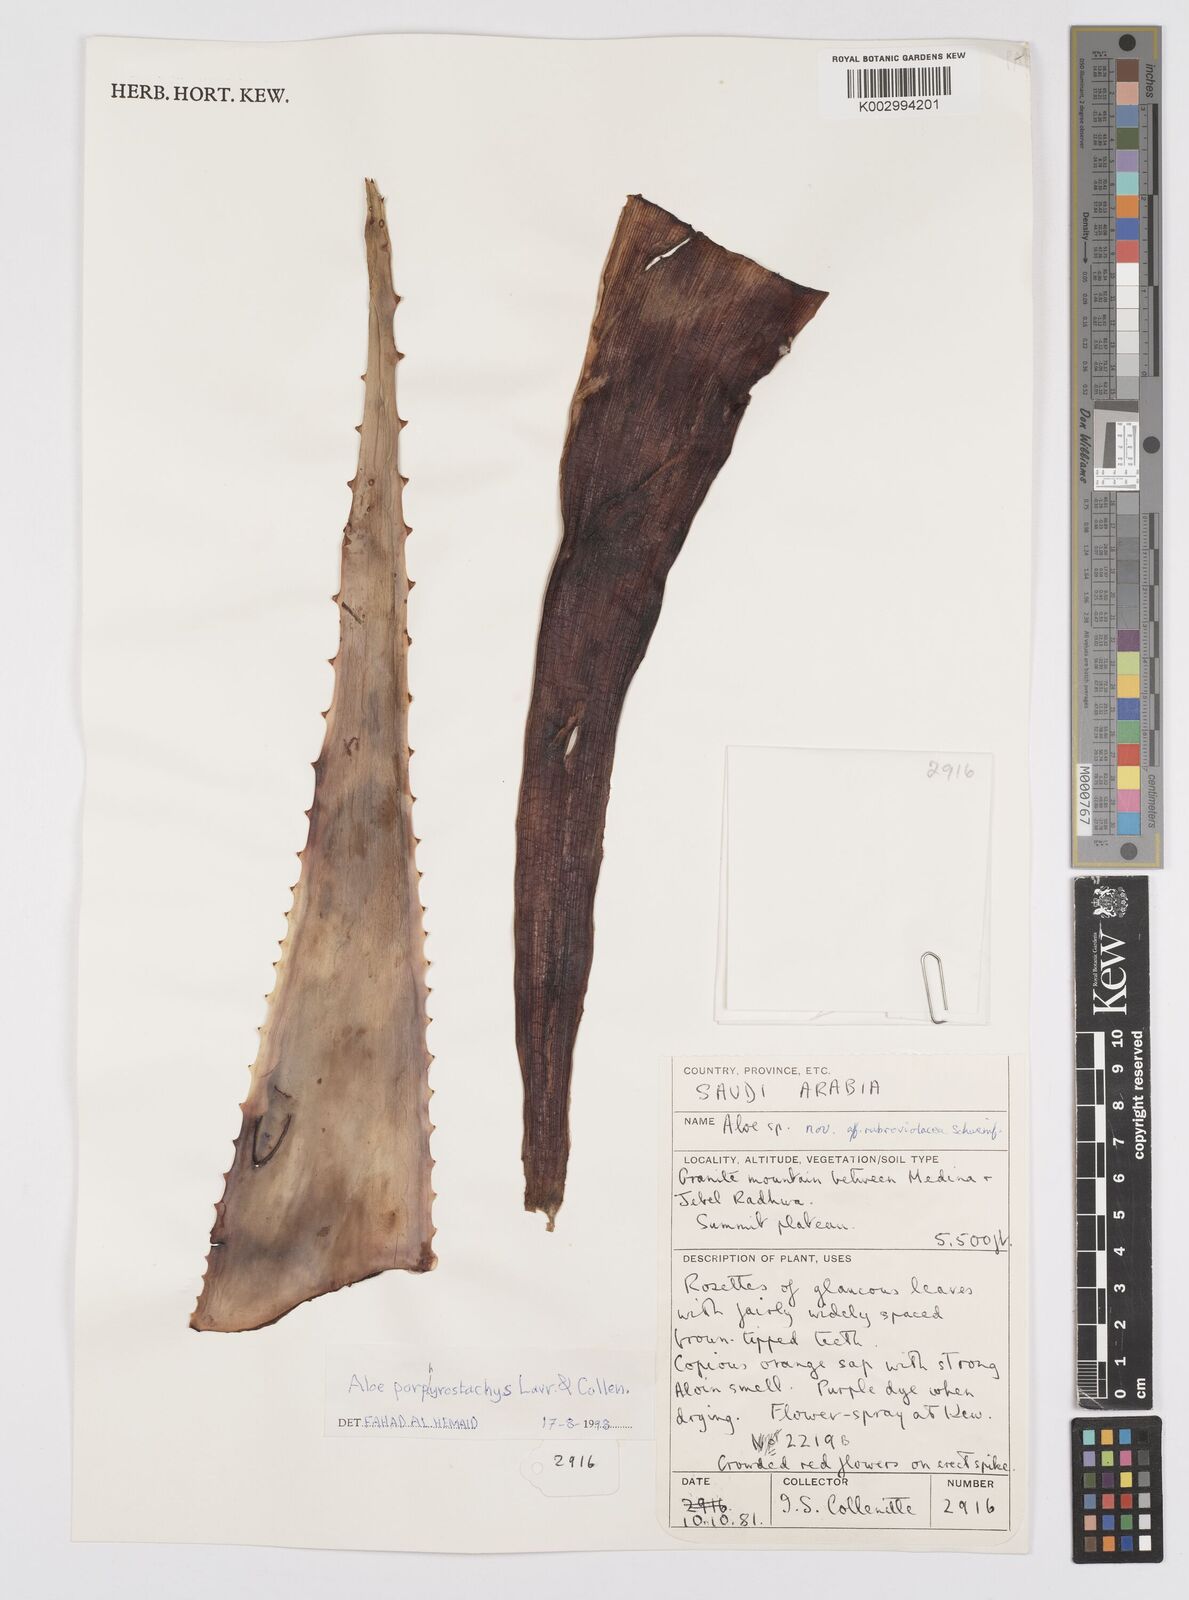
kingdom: Plantae
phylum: Tracheophyta
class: Liliopsida
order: Asparagales
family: Asphodelaceae
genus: Aloe
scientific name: Aloe porphyrostachys
